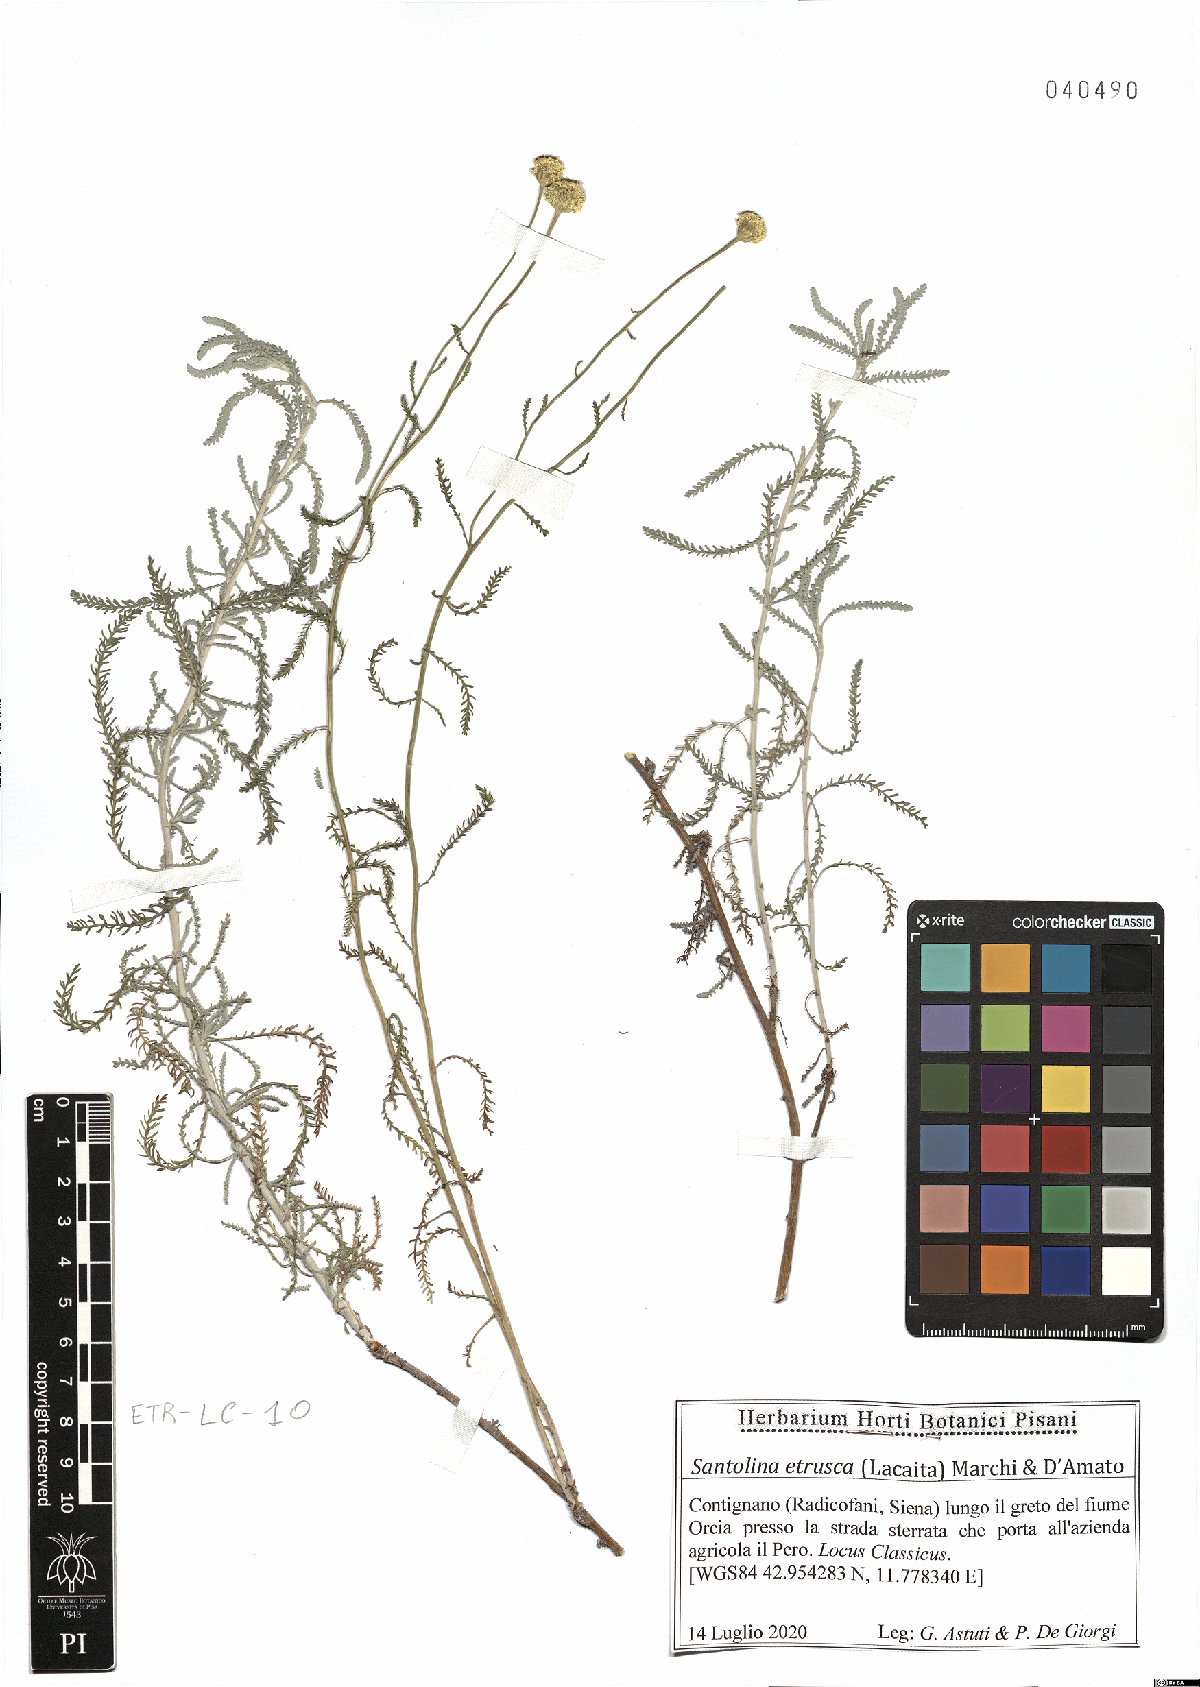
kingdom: Plantae
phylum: Tracheophyta
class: Magnoliopsida
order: Asterales
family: Asteraceae
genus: Santolina
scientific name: Santolina etrusca
